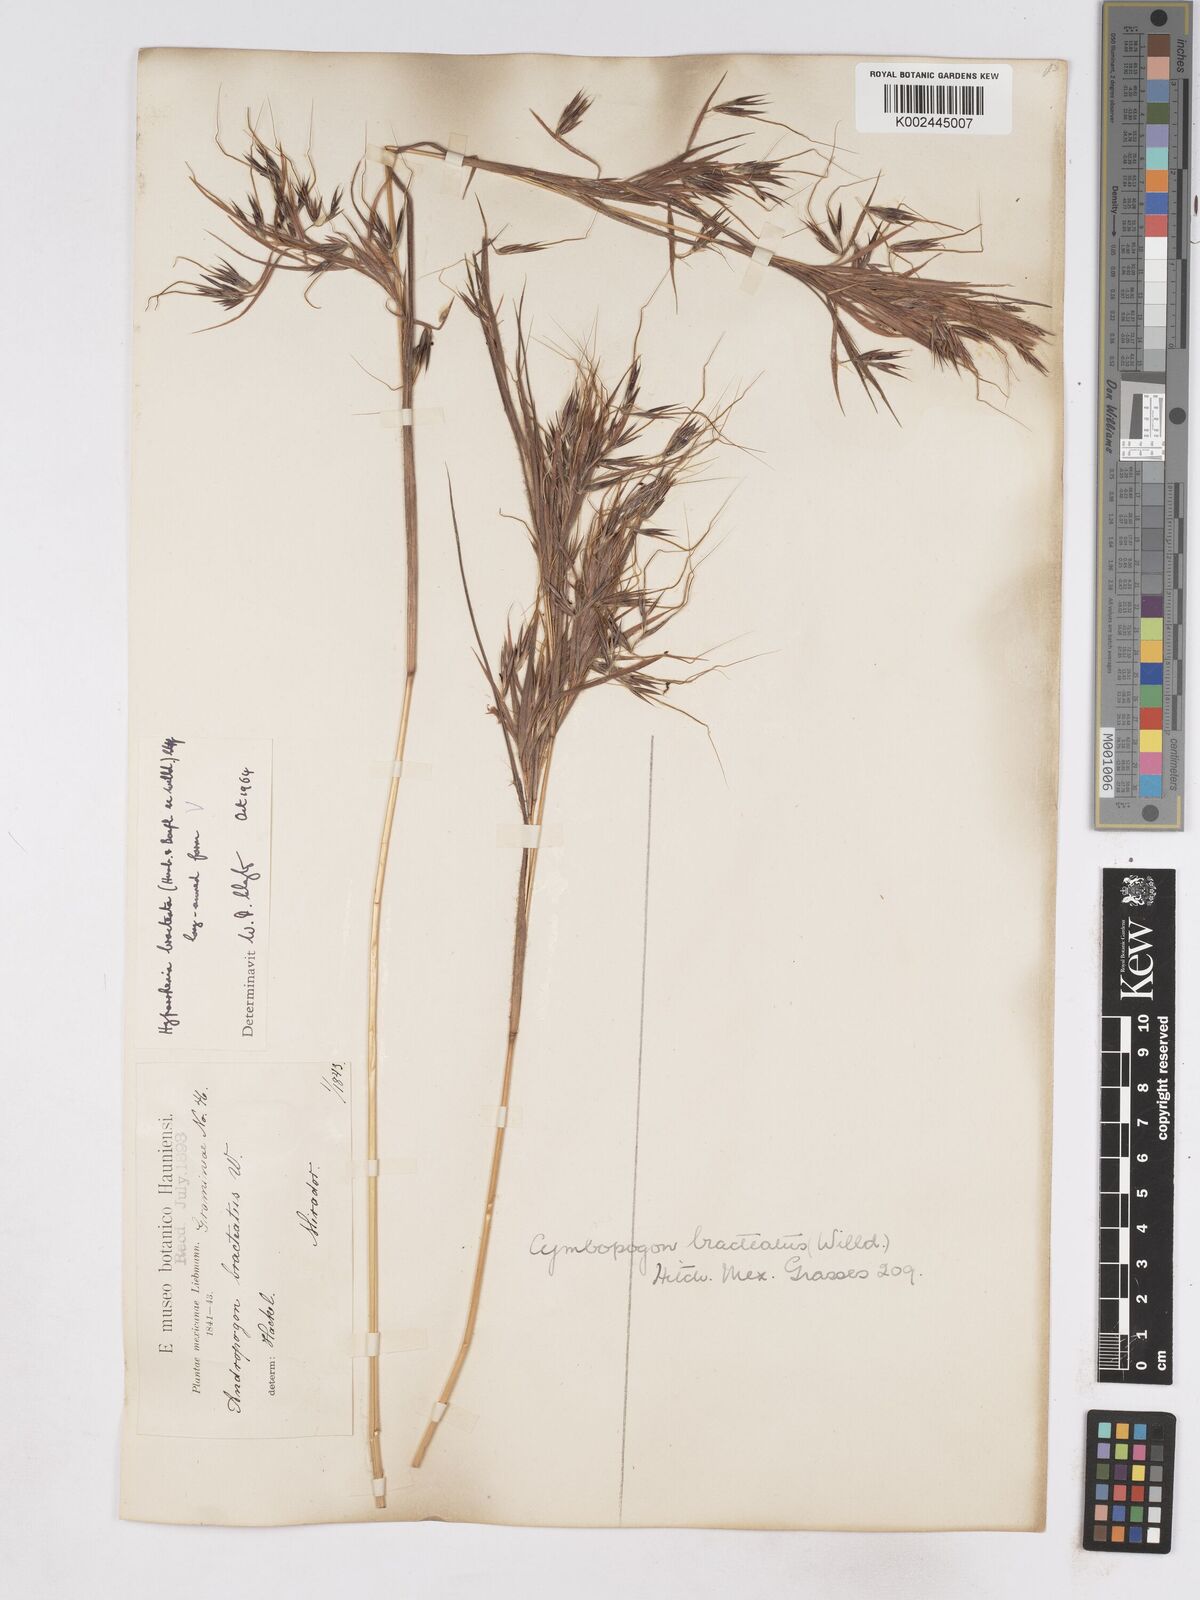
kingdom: Plantae
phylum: Tracheophyta
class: Liliopsida
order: Poales
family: Poaceae
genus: Hyparrhenia
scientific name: Hyparrhenia bracteata
